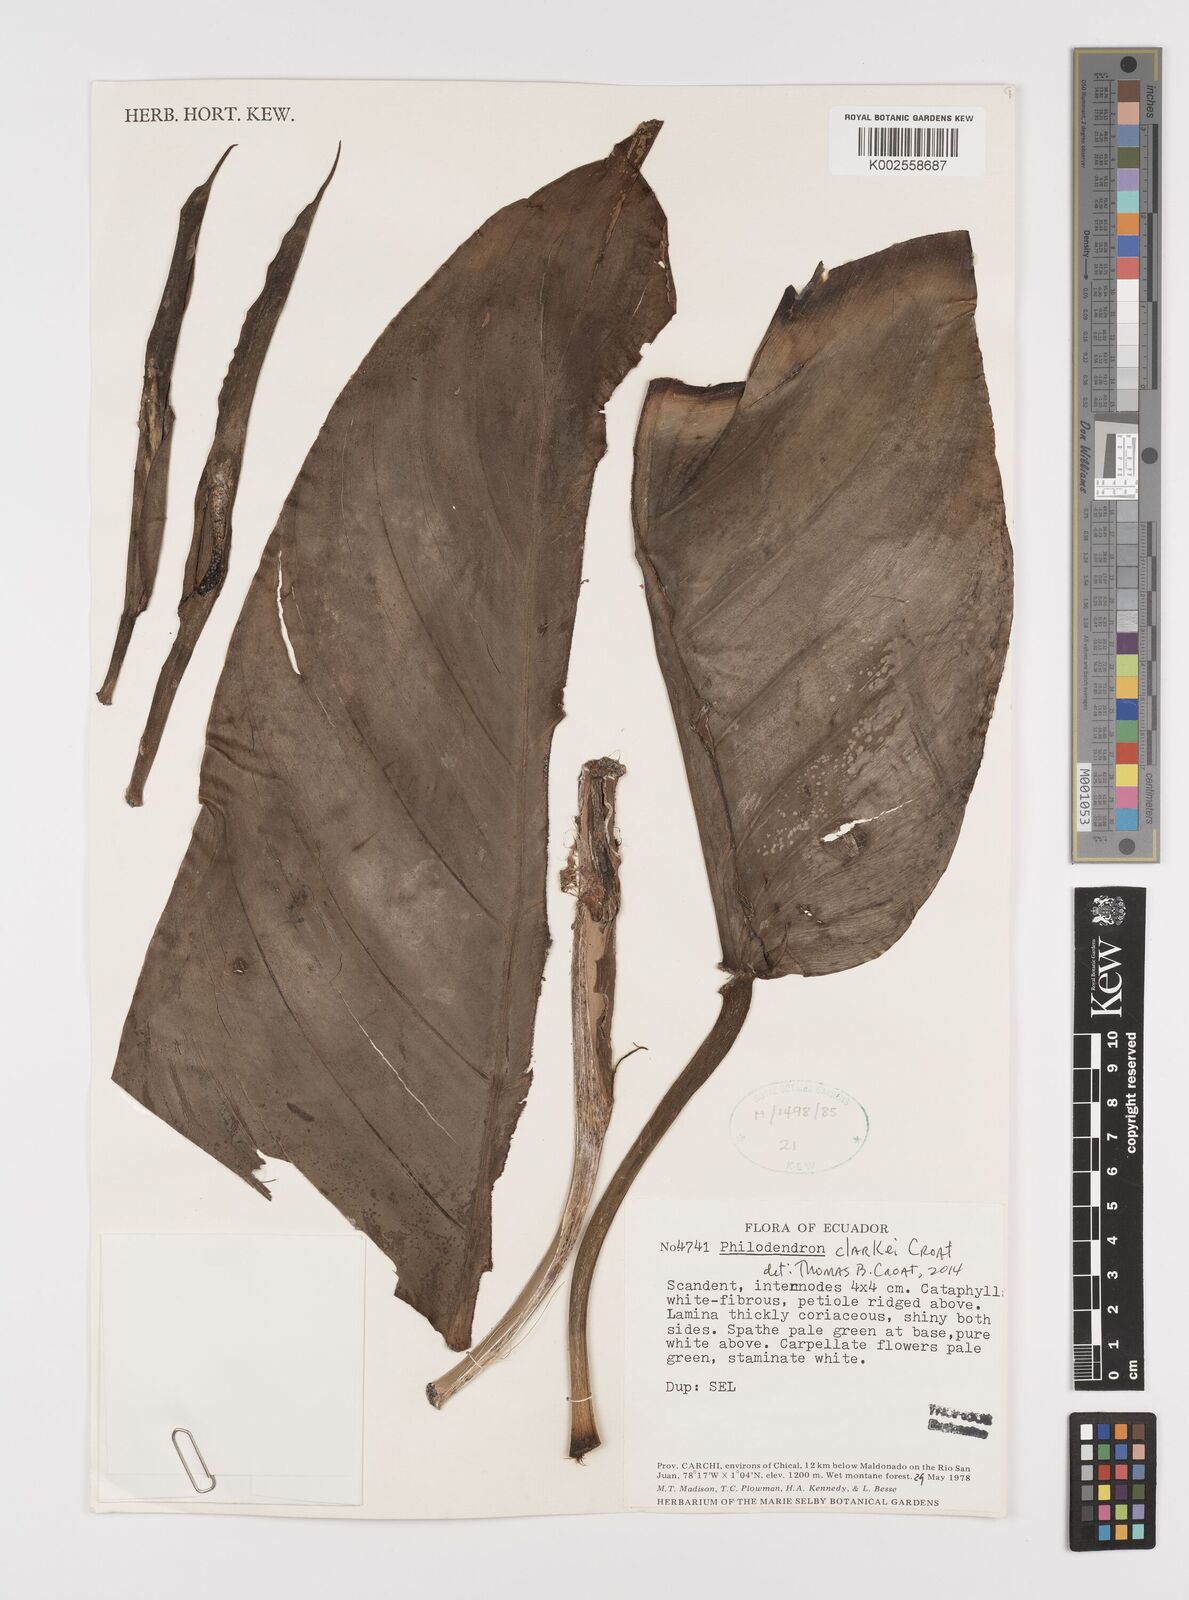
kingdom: Plantae
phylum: Tracheophyta
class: Liliopsida
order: Alismatales
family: Araceae
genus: Philodendron
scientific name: Philodendron clarkei
